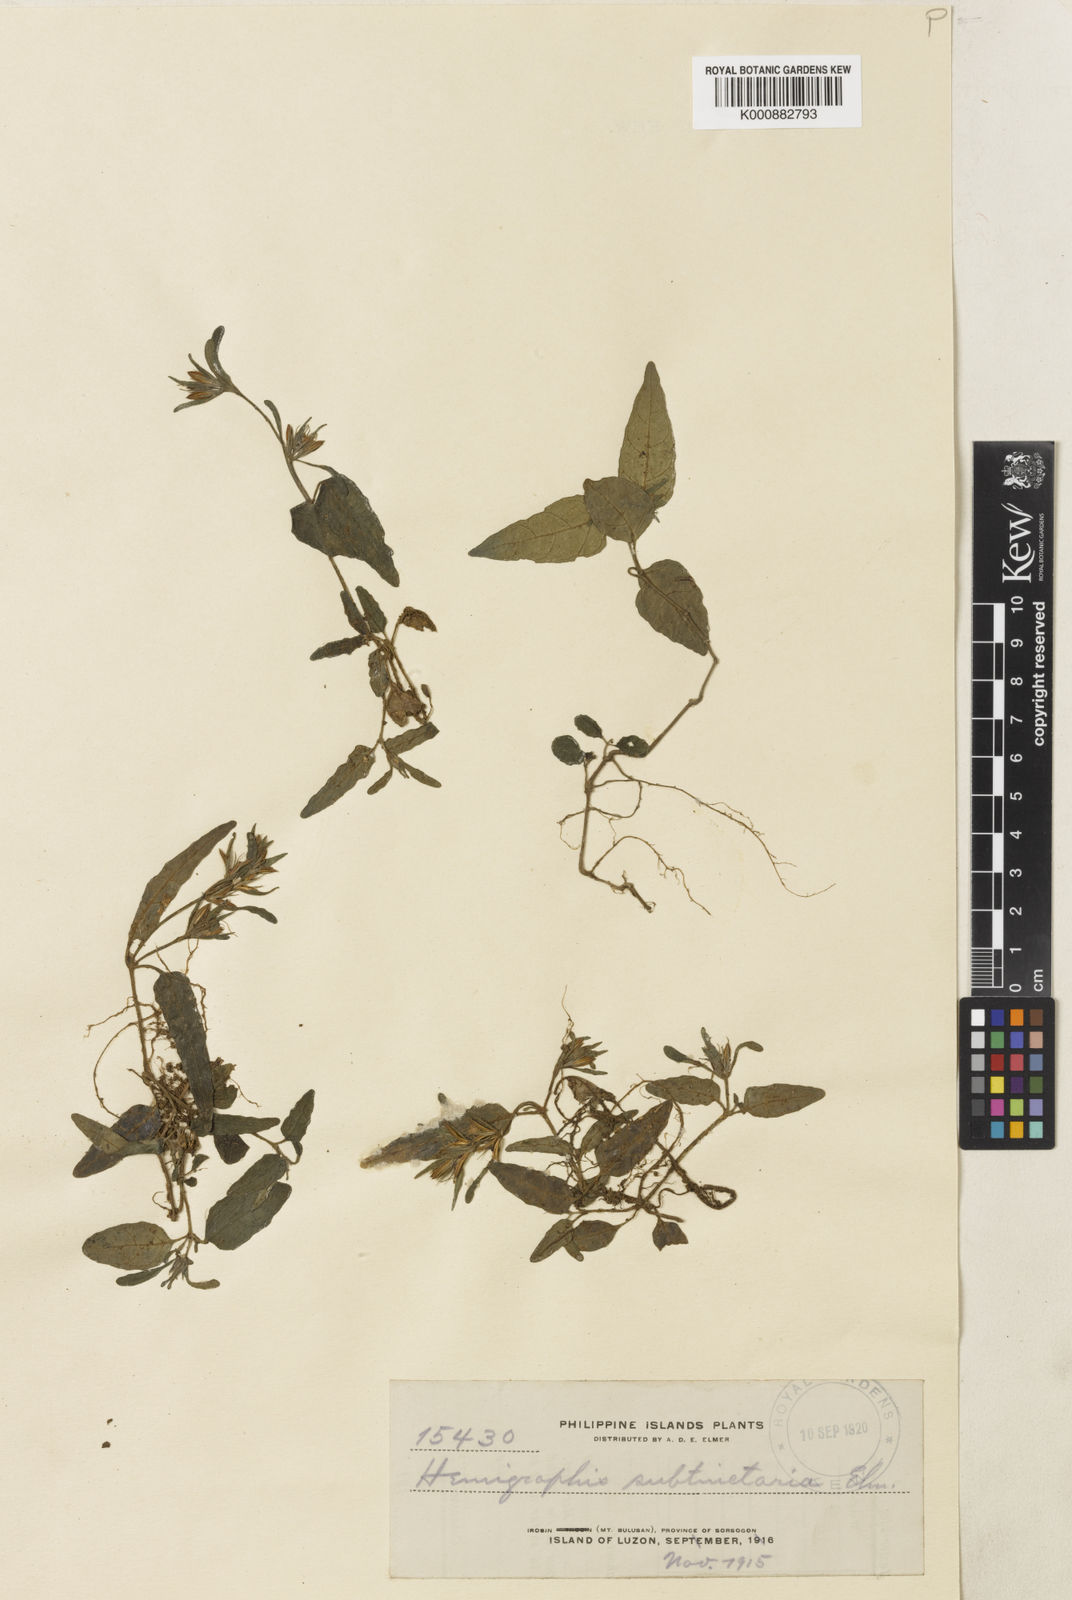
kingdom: Plantae
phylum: Tracheophyta
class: Magnoliopsida
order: Lamiales
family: Acanthaceae
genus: Strobilanthes
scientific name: Strobilanthes diversifolia
